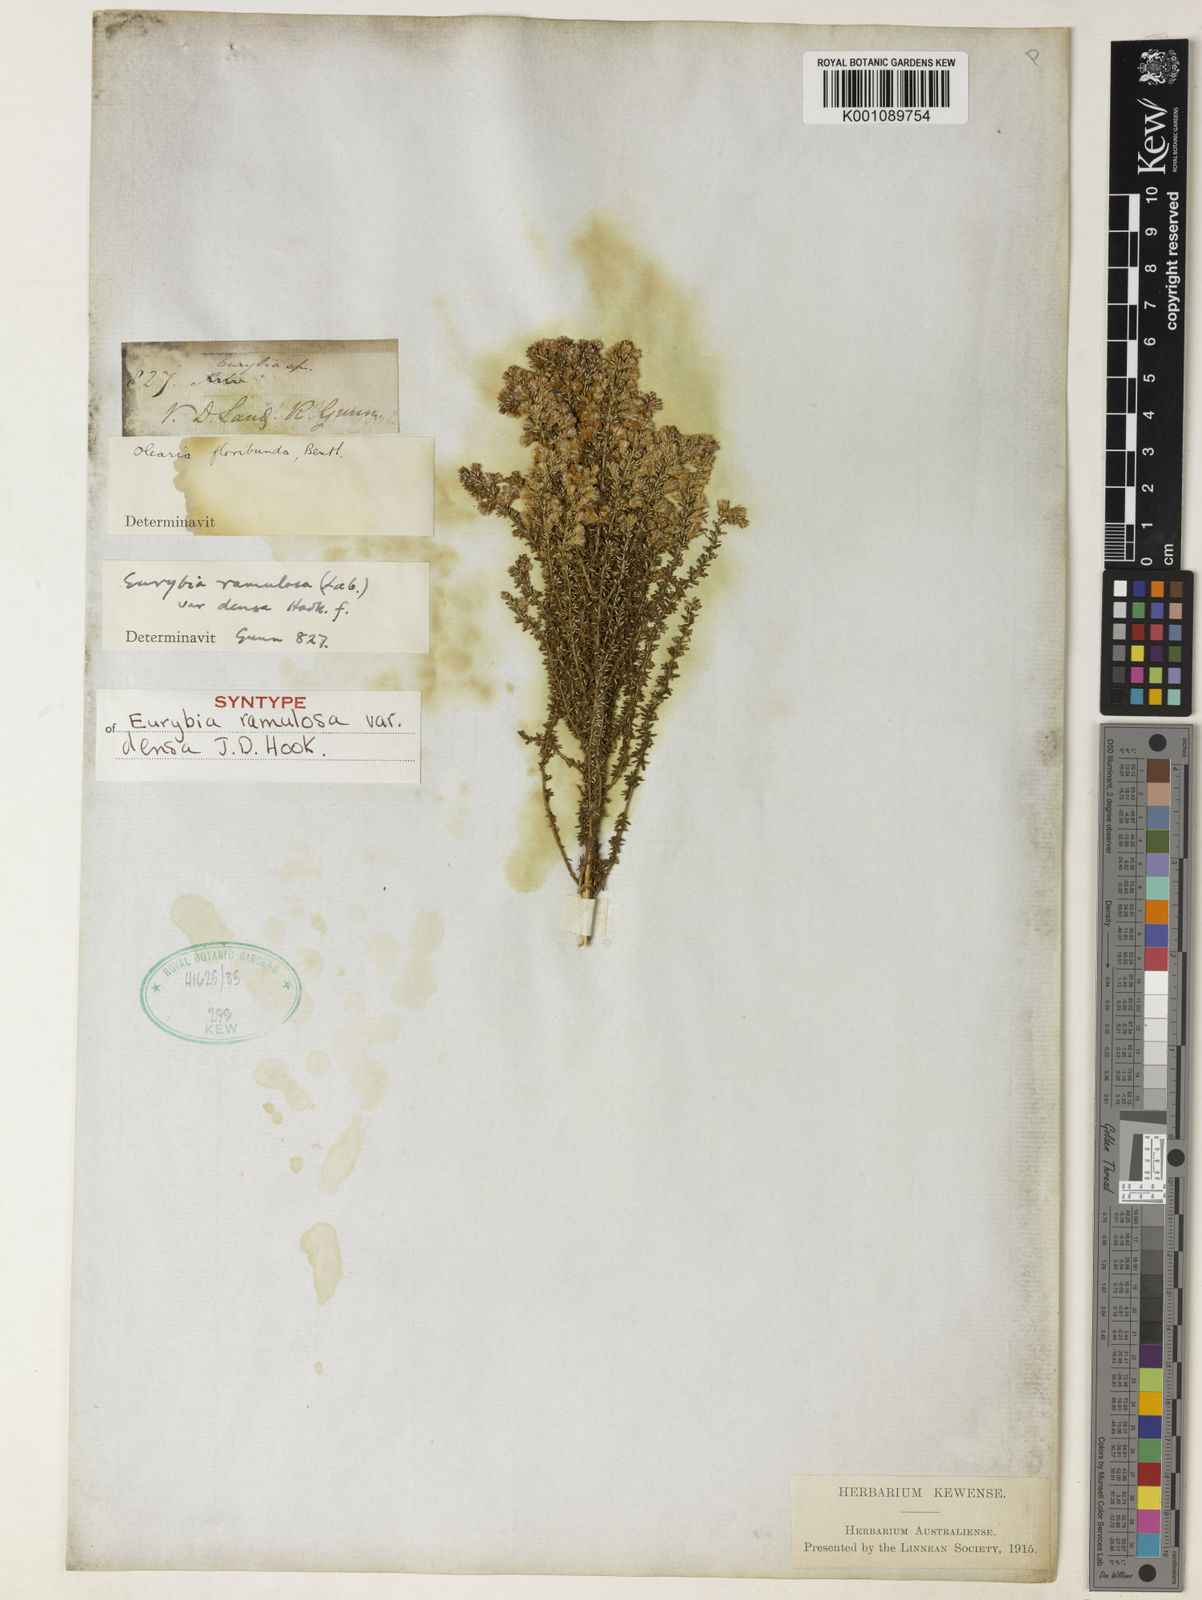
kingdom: Plantae
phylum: Tracheophyta
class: Magnoliopsida
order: Asterales
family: Asteraceae
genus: Olearia
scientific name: Olearia ramulosa
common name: Twiggy daisybush
